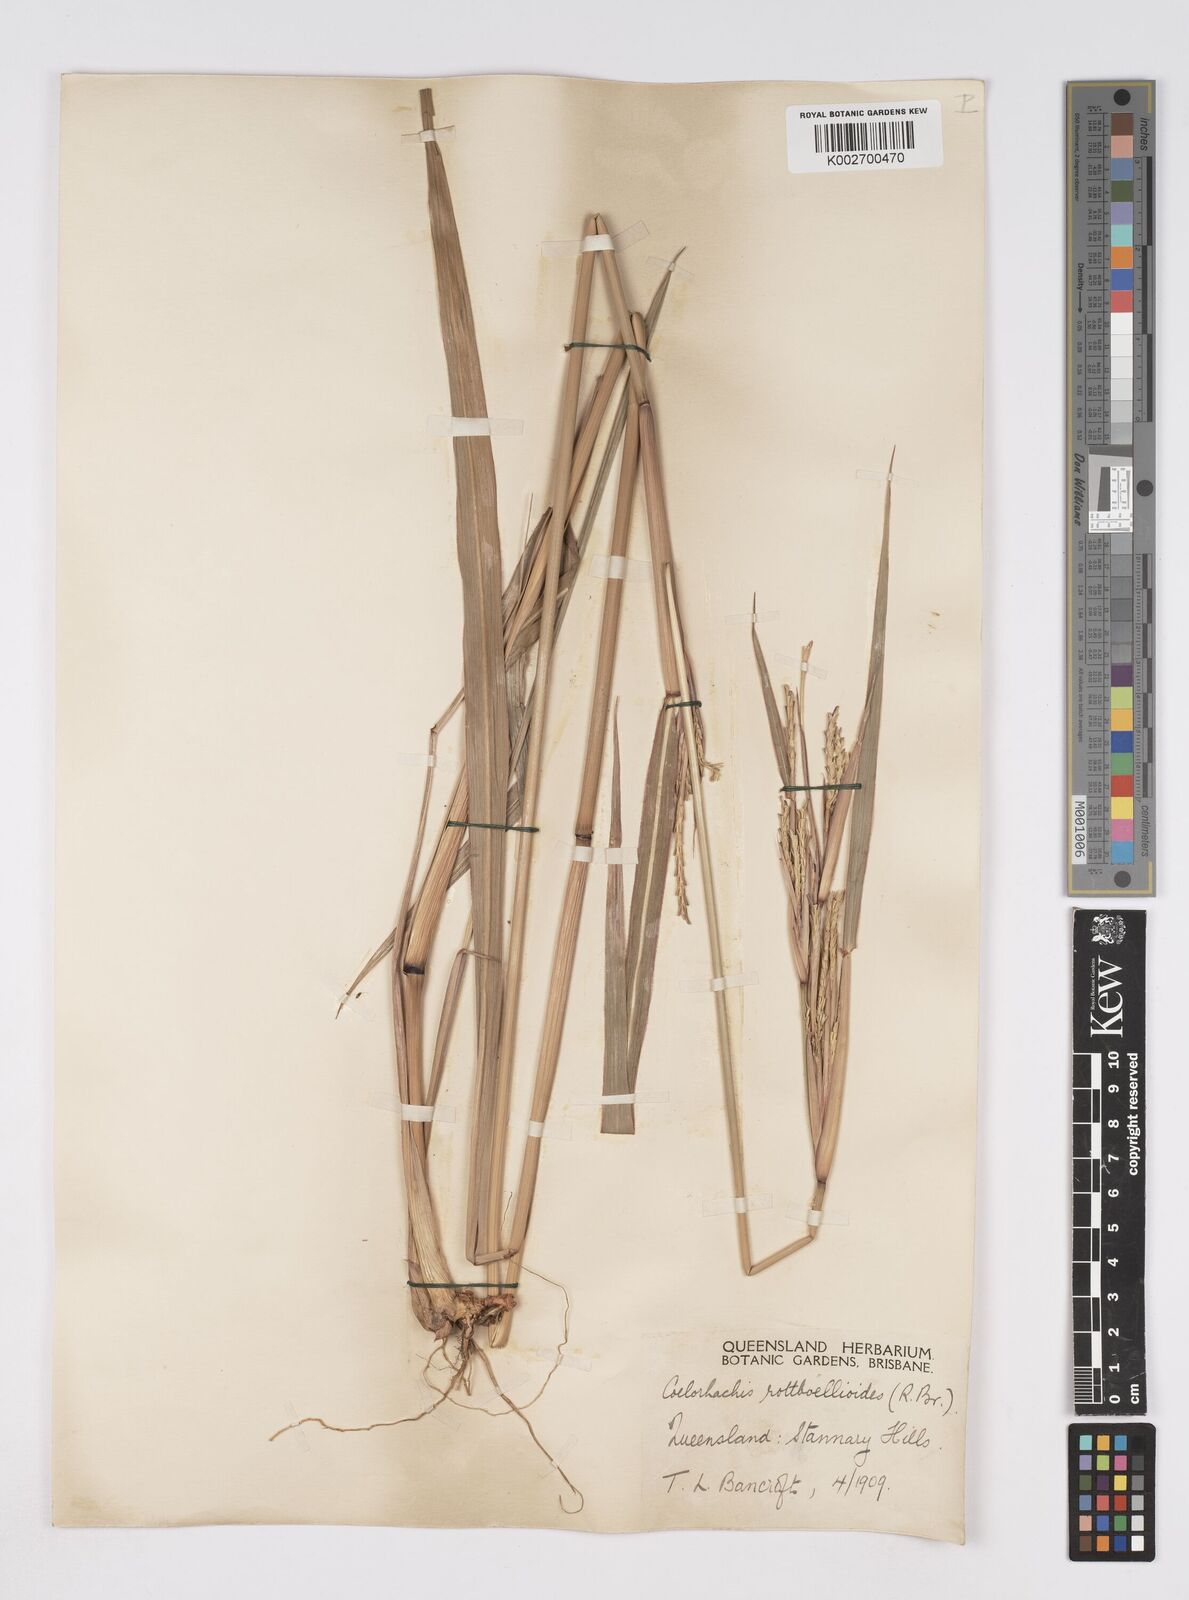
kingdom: Plantae
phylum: Tracheophyta
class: Liliopsida
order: Poales
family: Poaceae
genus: Rottboellia
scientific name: Rottboellia rottboellioides
